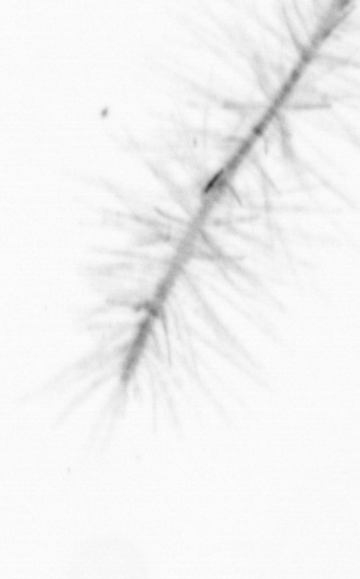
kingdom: Chromista
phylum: Ochrophyta
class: Bacillariophyceae
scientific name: Bacillariophyceae
